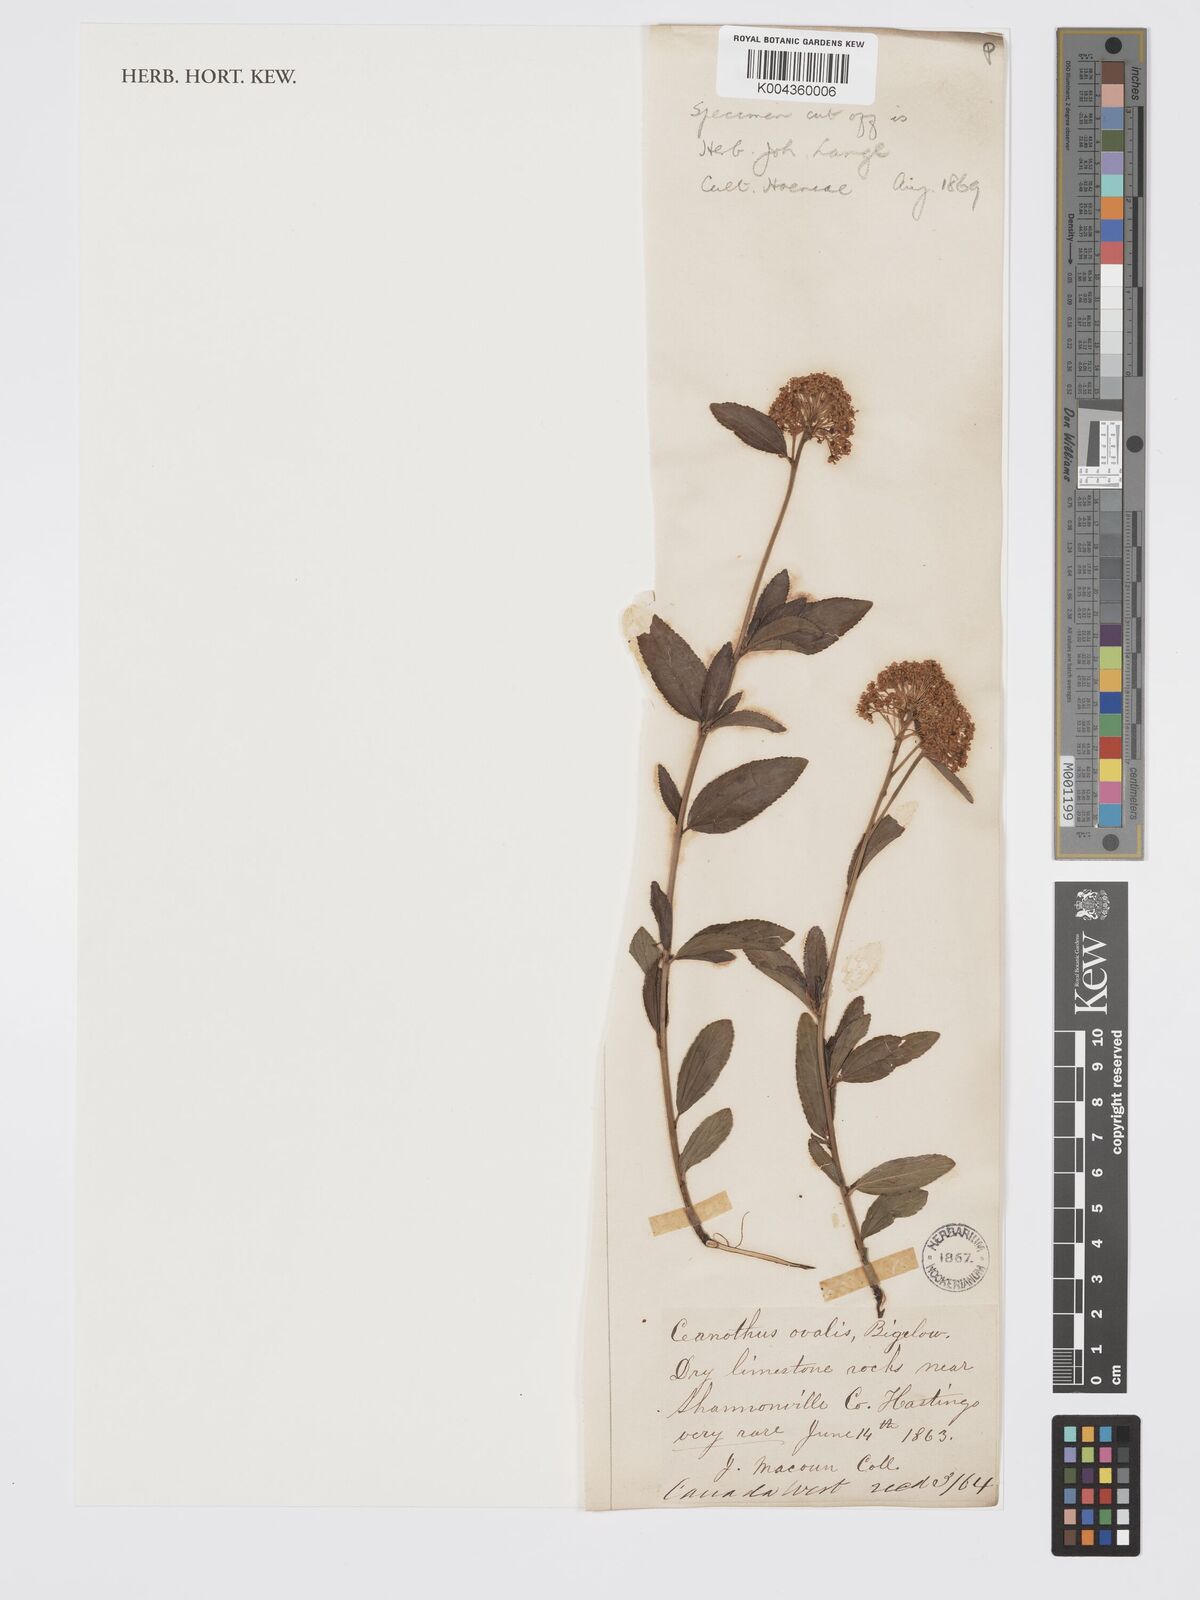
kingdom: Plantae
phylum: Tracheophyta
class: Magnoliopsida
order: Rosales
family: Rhamnaceae
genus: Ceanothus
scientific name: Ceanothus herbaceus
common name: Inland ceanothus
